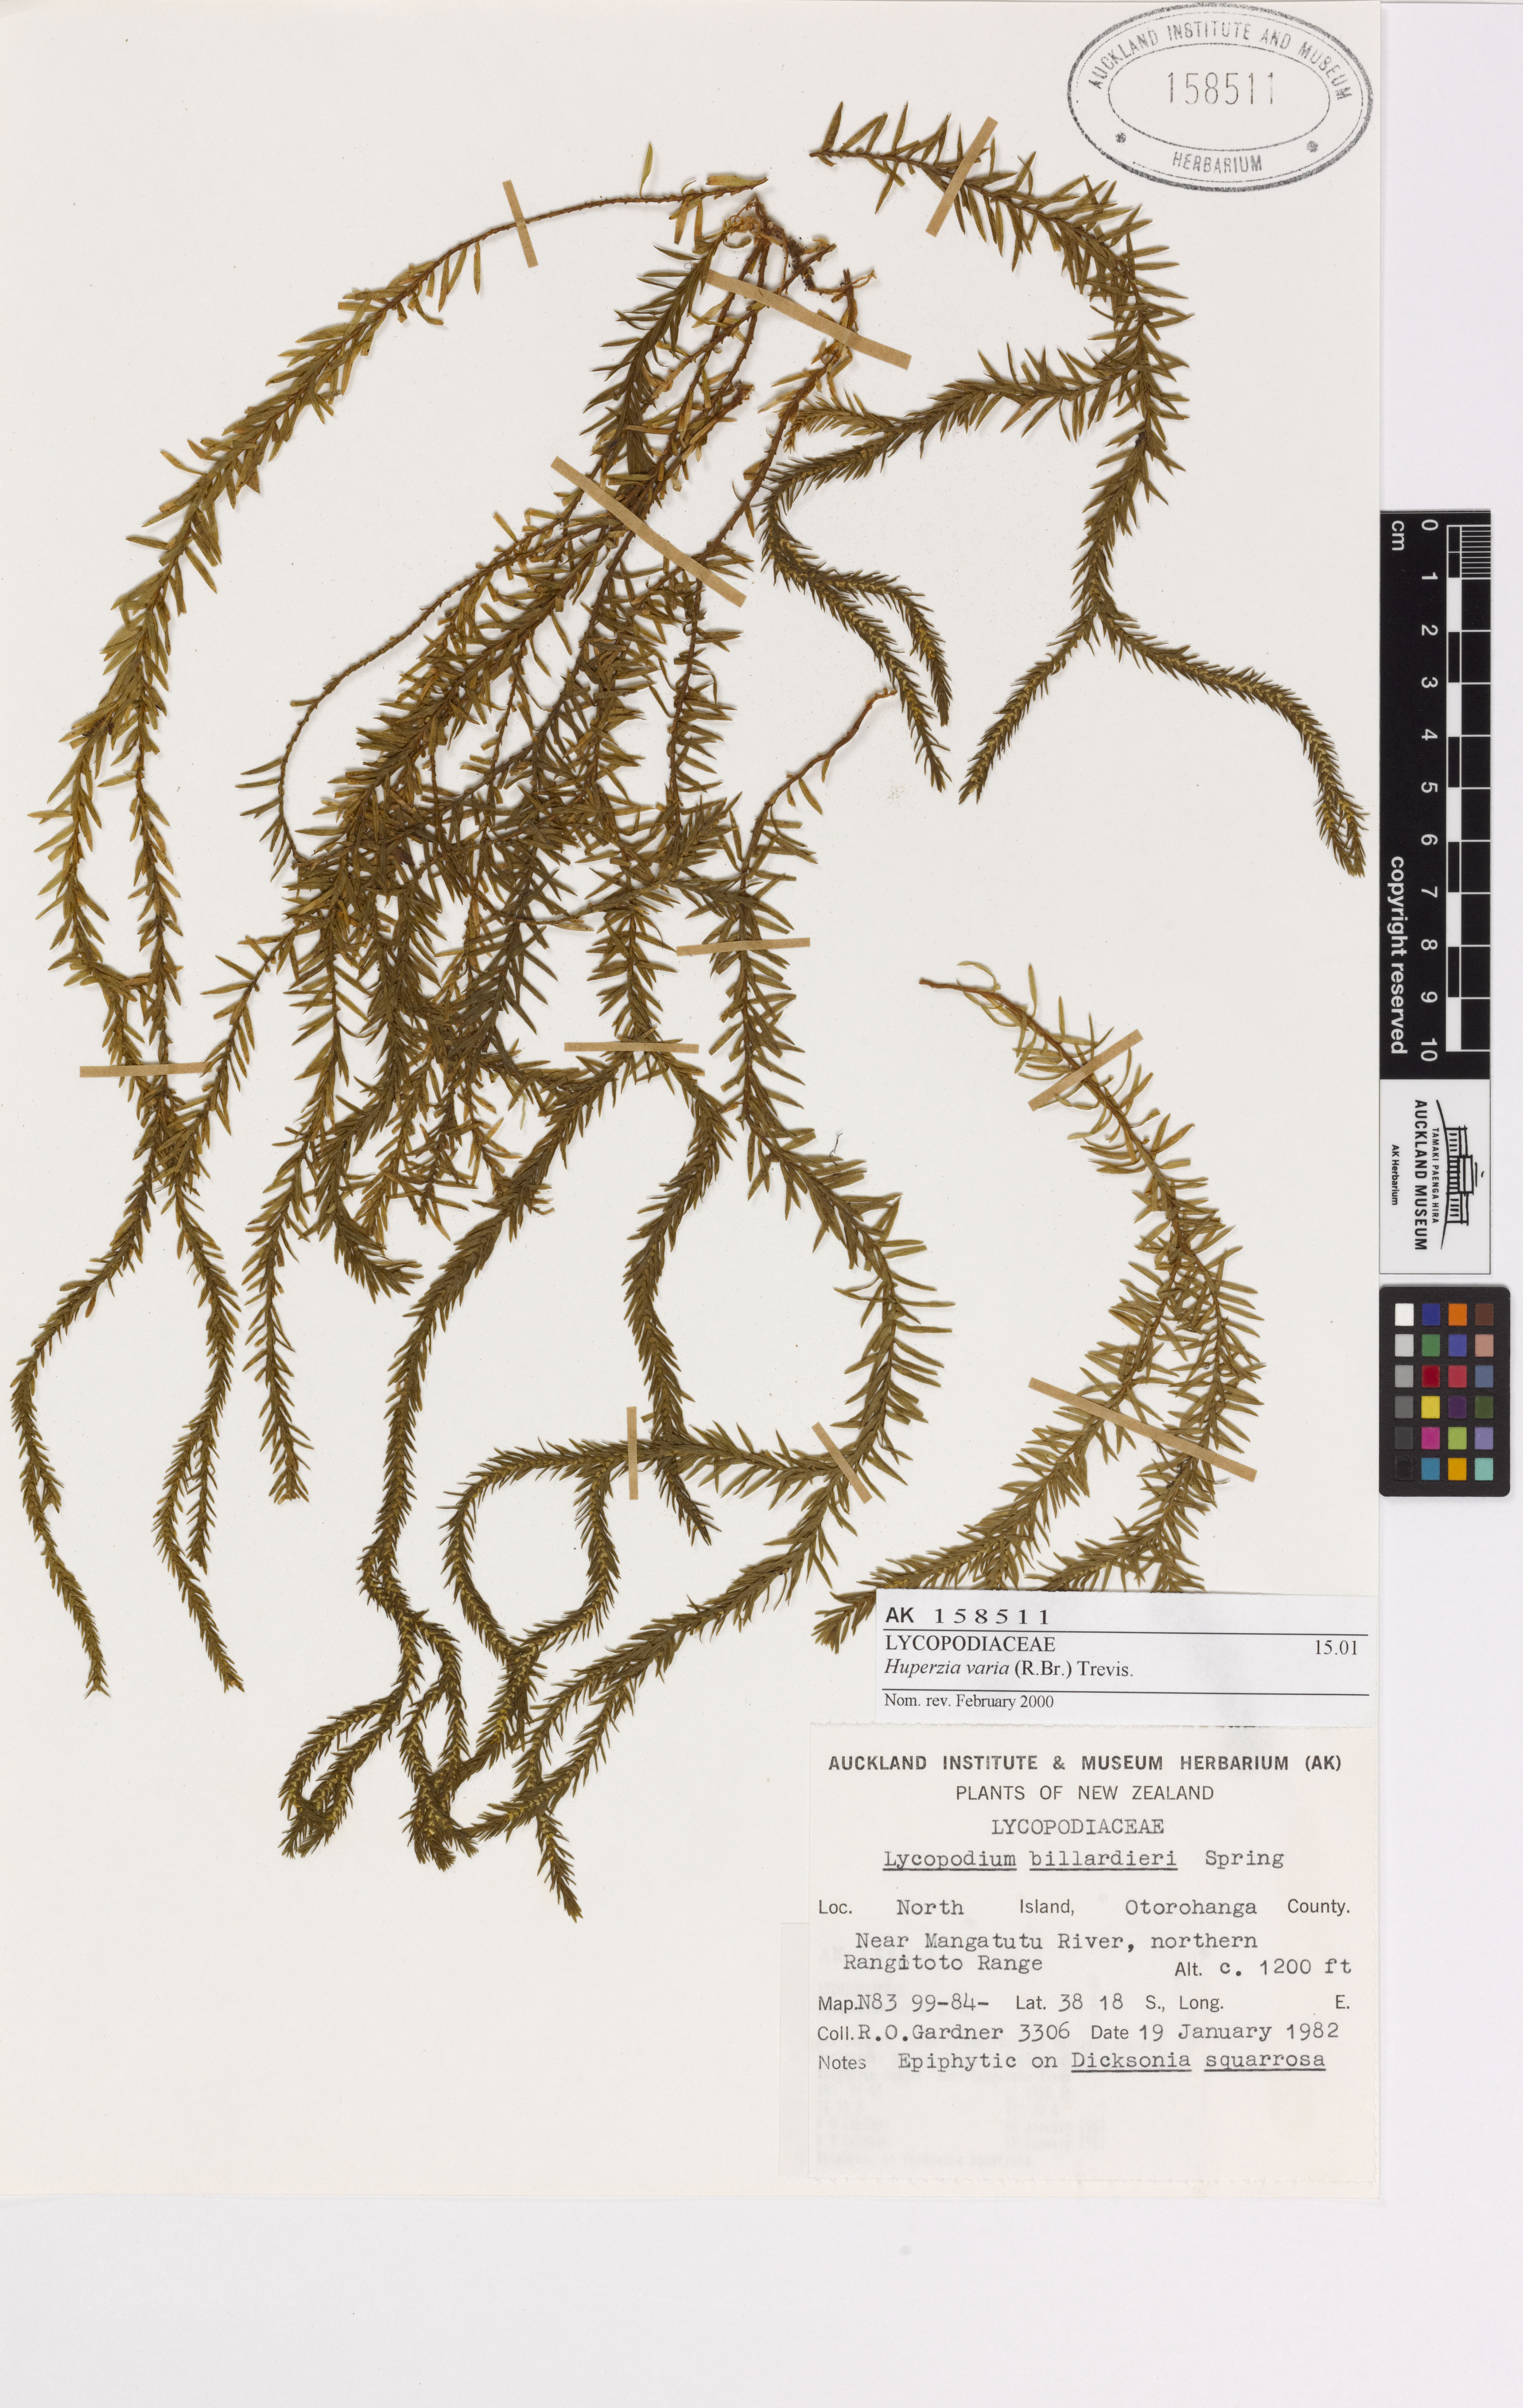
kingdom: Plantae
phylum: Tracheophyta
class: Lycopodiopsida
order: Lycopodiales
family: Lycopodiaceae
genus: Phlegmariurus
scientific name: Phlegmariurus varius
